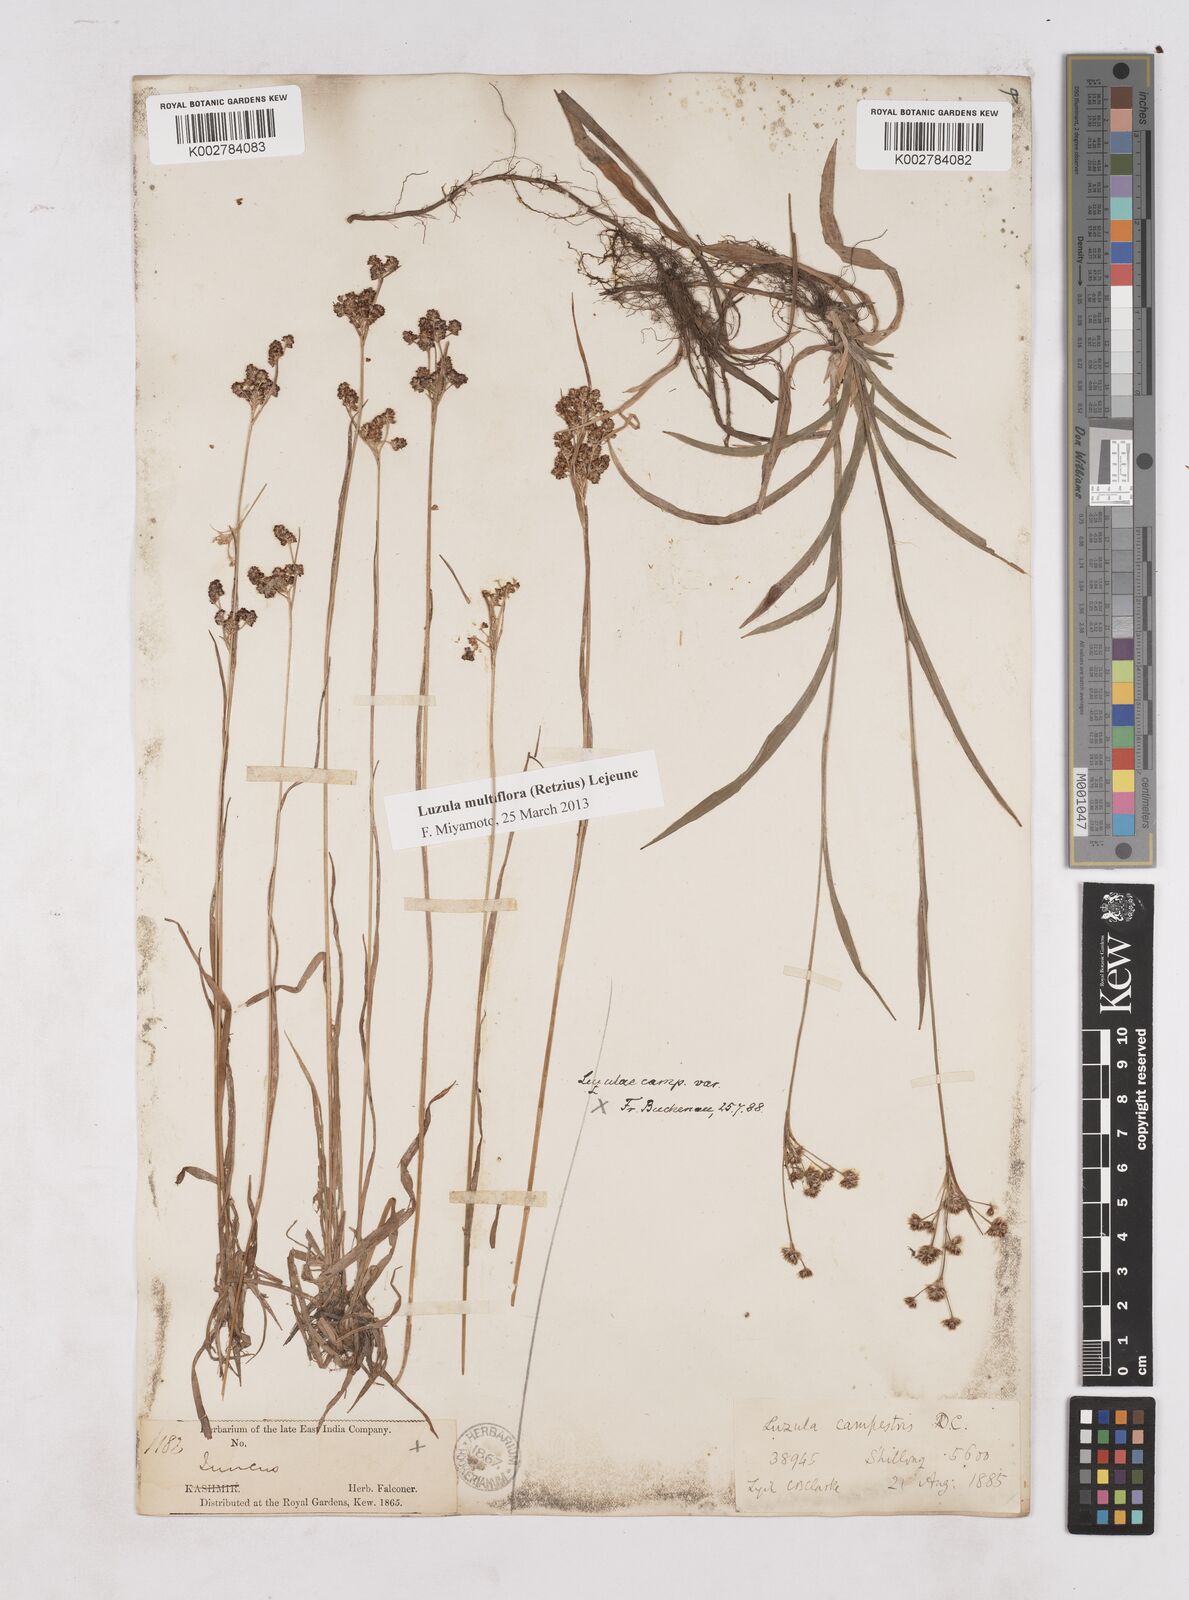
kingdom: Plantae
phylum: Tracheophyta
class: Liliopsida
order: Poales
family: Juncaceae
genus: Luzula
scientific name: Luzula campestris
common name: Field wood-rush
